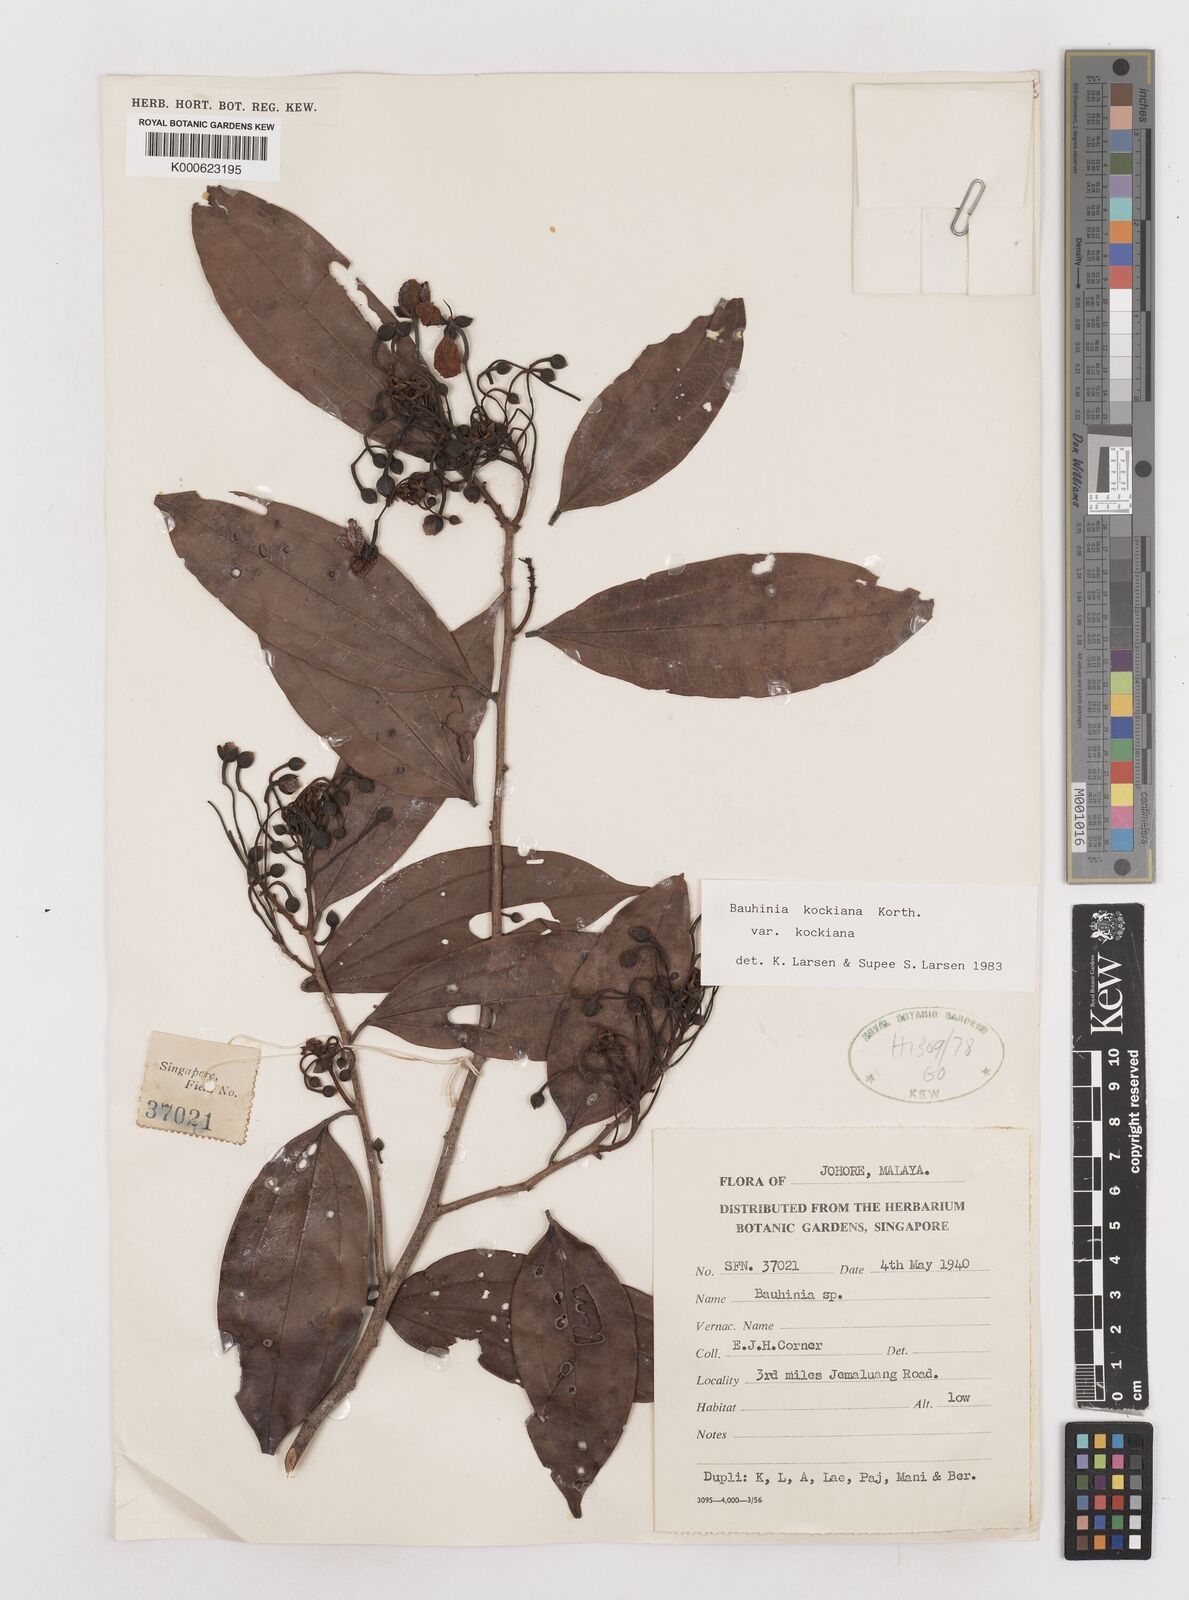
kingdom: Plantae
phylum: Tracheophyta
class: Magnoliopsida
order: Fabales
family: Fabaceae
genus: Bauhinia
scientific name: Bauhinia
